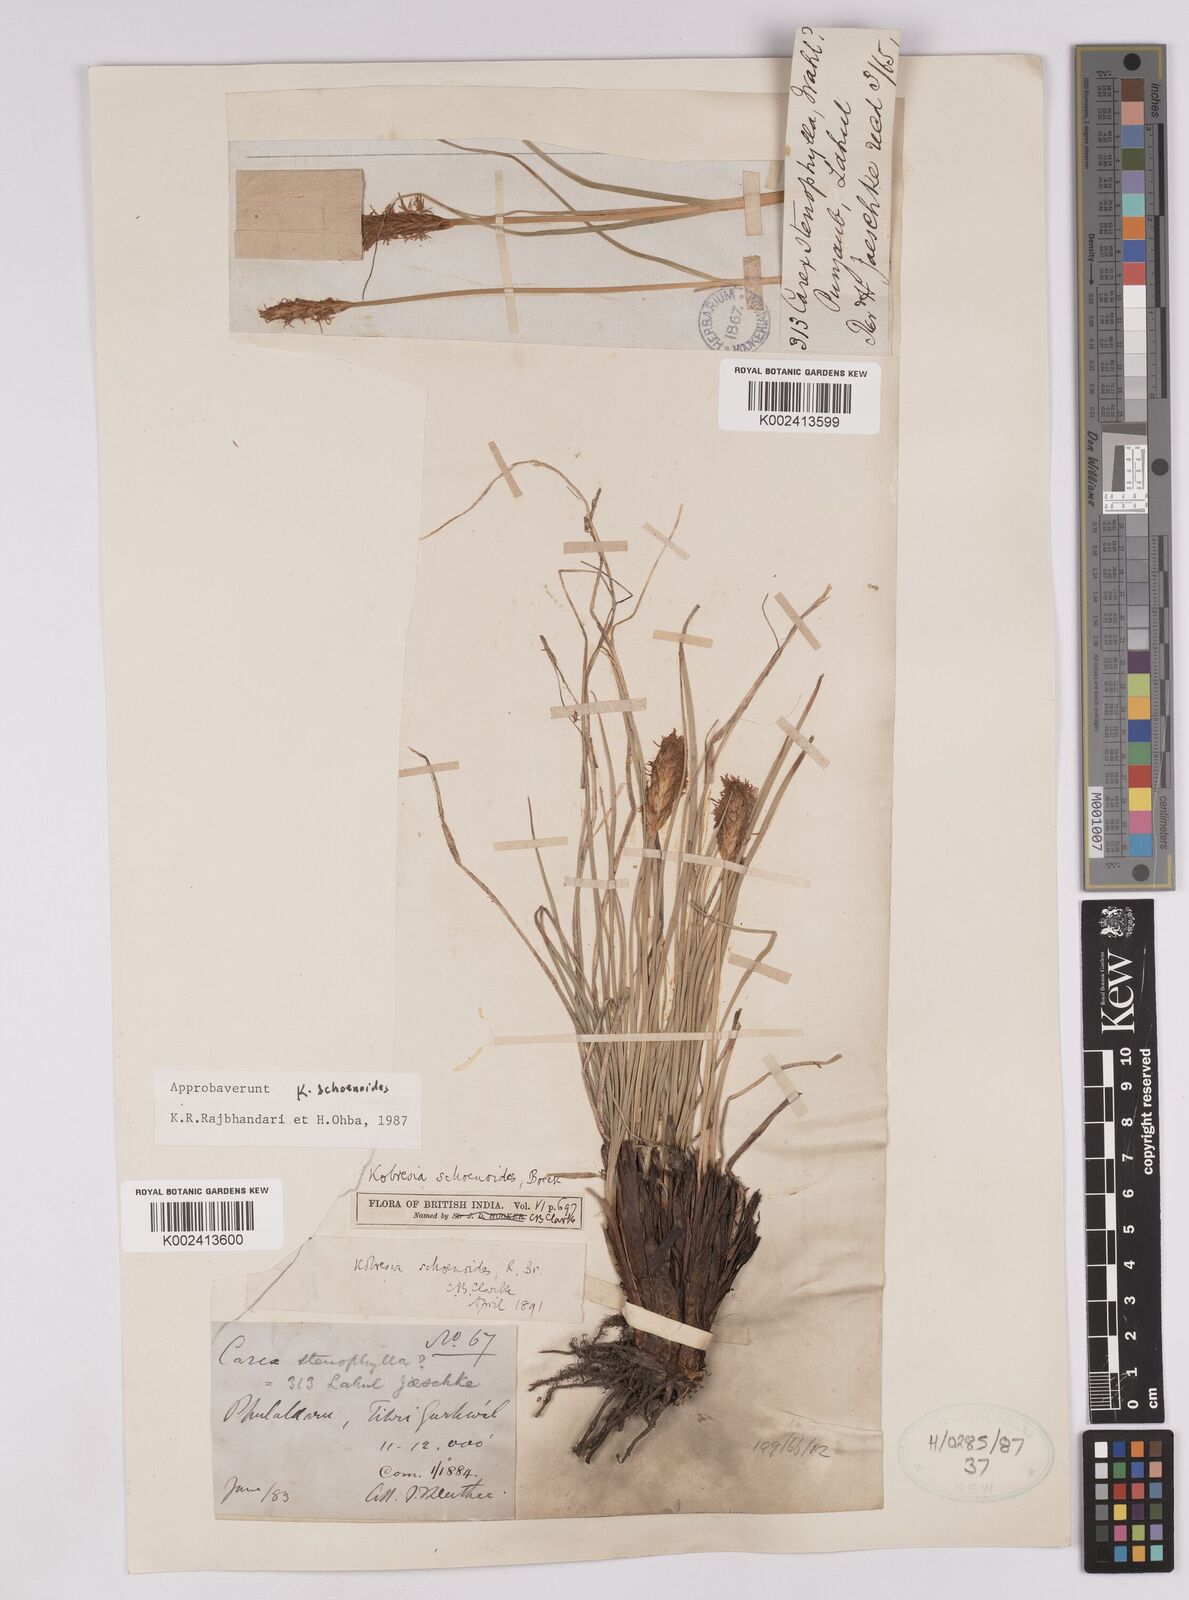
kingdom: Plantae
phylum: Tracheophyta
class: Liliopsida
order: Poales
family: Cyperaceae
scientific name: Cyperaceae
